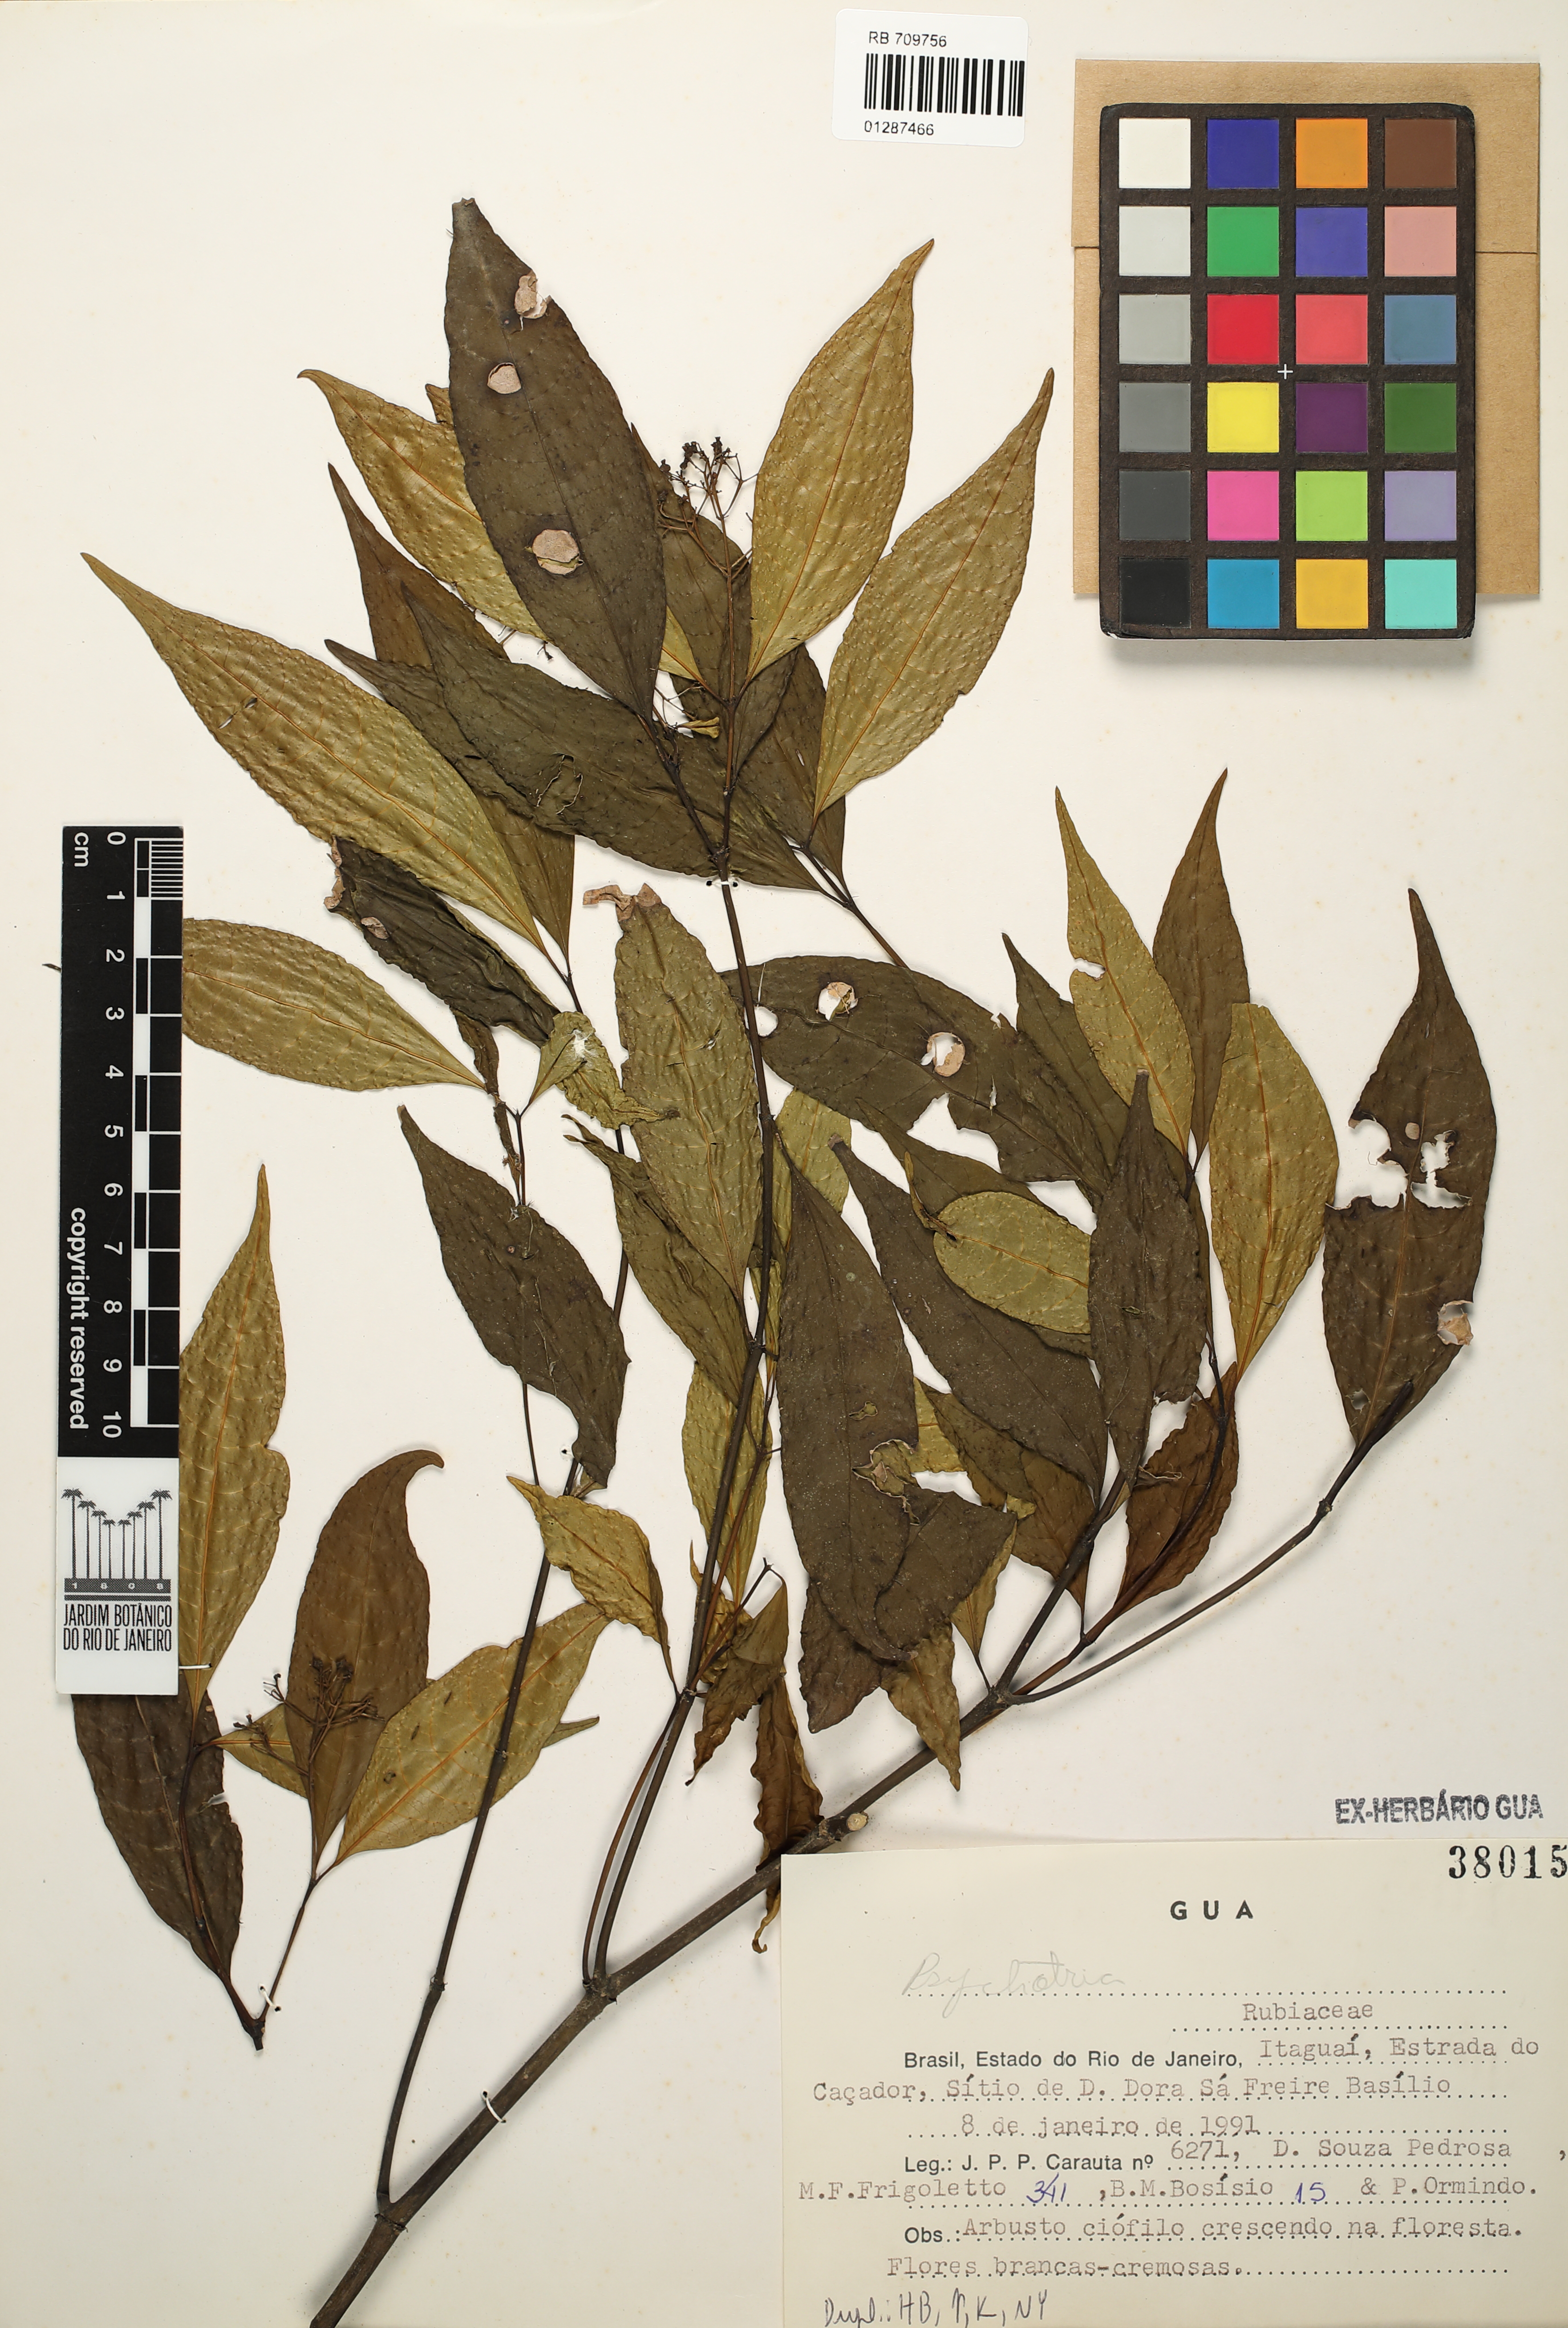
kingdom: Plantae
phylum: Tracheophyta
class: Magnoliopsida
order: Gentianales
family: Rubiaceae
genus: Psychotria
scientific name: Psychotria
